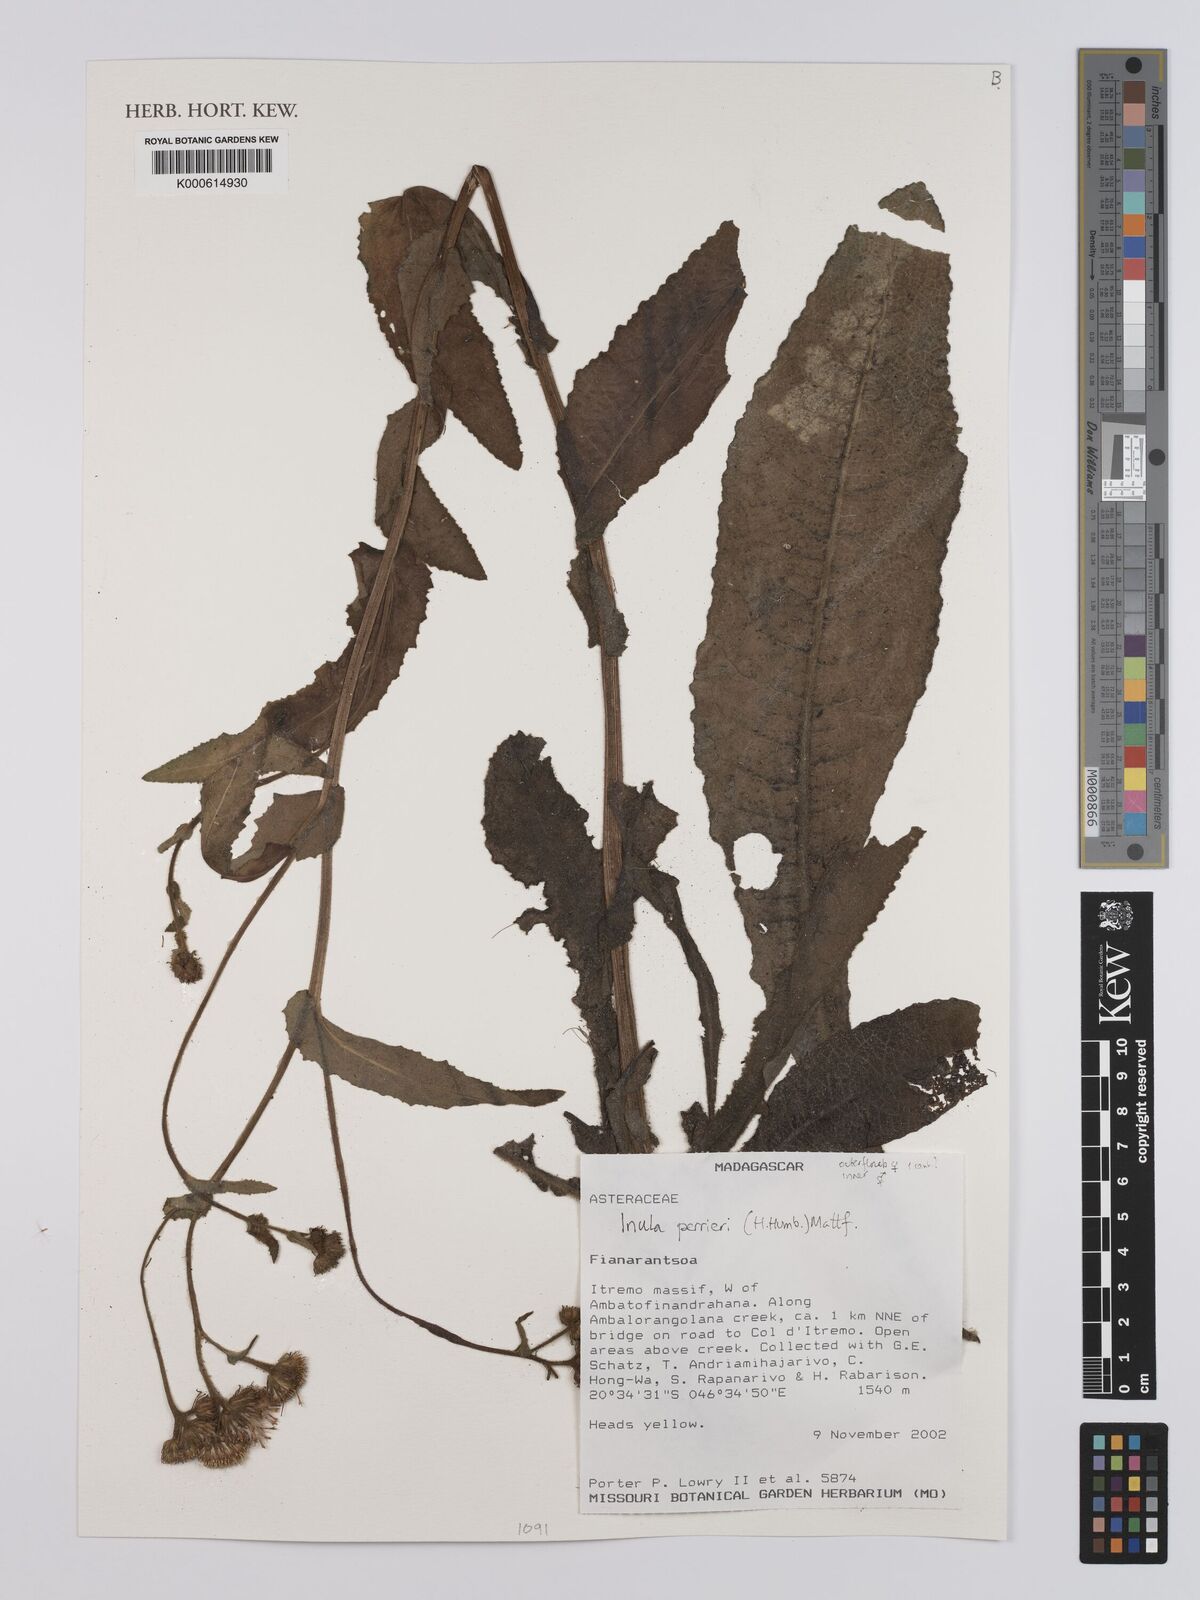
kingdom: Plantae
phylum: Tracheophyta
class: Magnoliopsida
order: Asterales
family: Asteraceae
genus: Inula
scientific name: Inula perrieri
